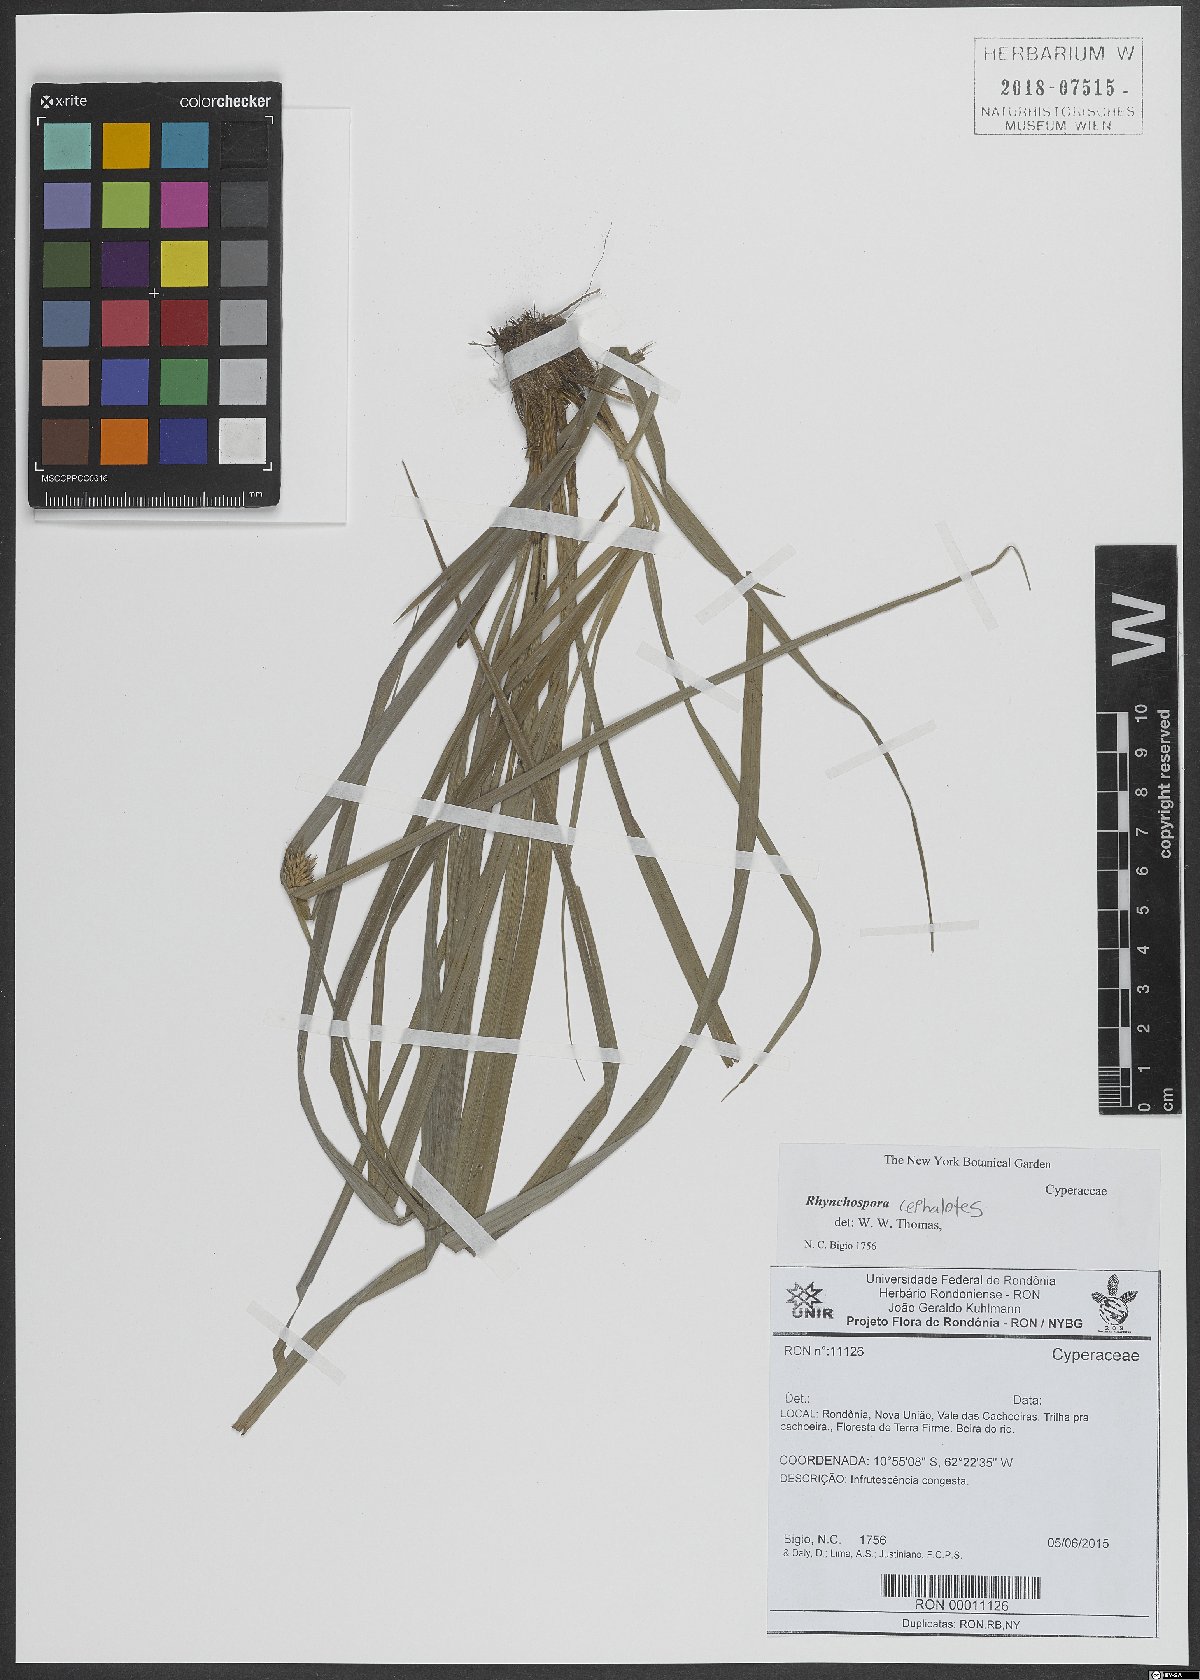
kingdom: Plantae
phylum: Tracheophyta
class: Liliopsida
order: Poales
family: Cyperaceae
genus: Rhynchospora
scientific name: Rhynchospora cephalotes
